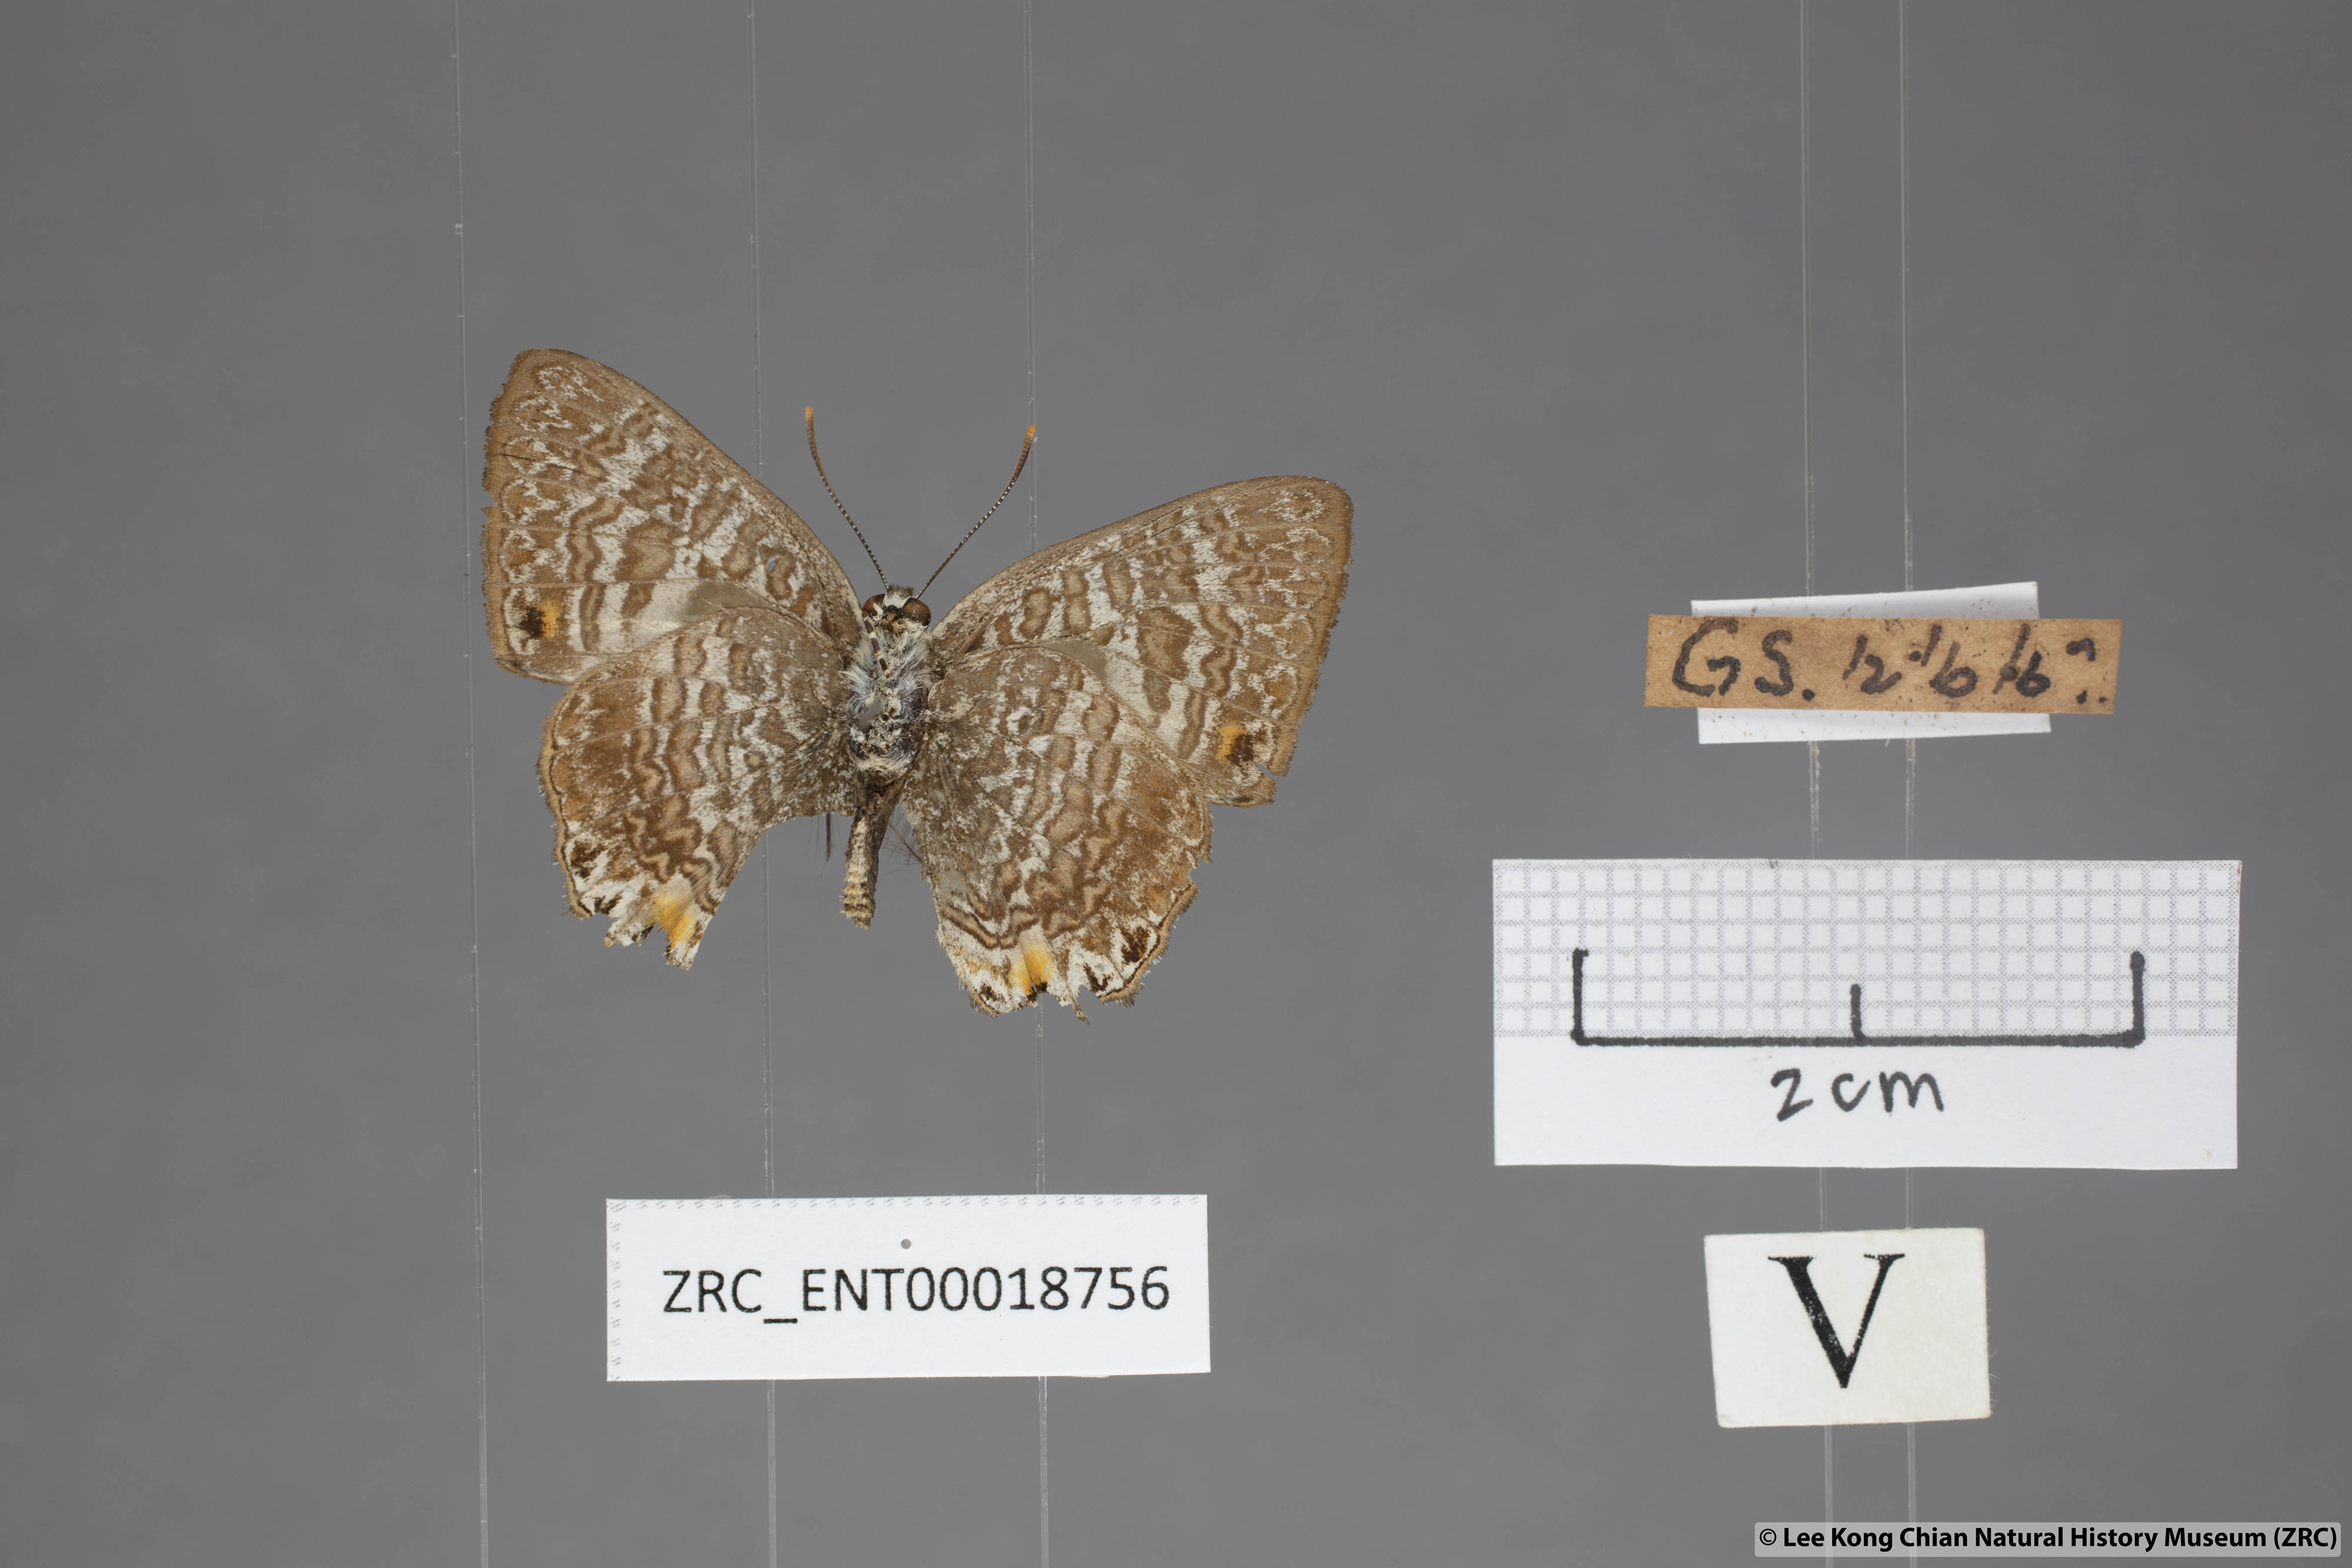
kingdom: Animalia
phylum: Arthropoda
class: Insecta
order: Lepidoptera
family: Lycaenidae
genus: Poritia
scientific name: Poritia erycinoides
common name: Blue gem
